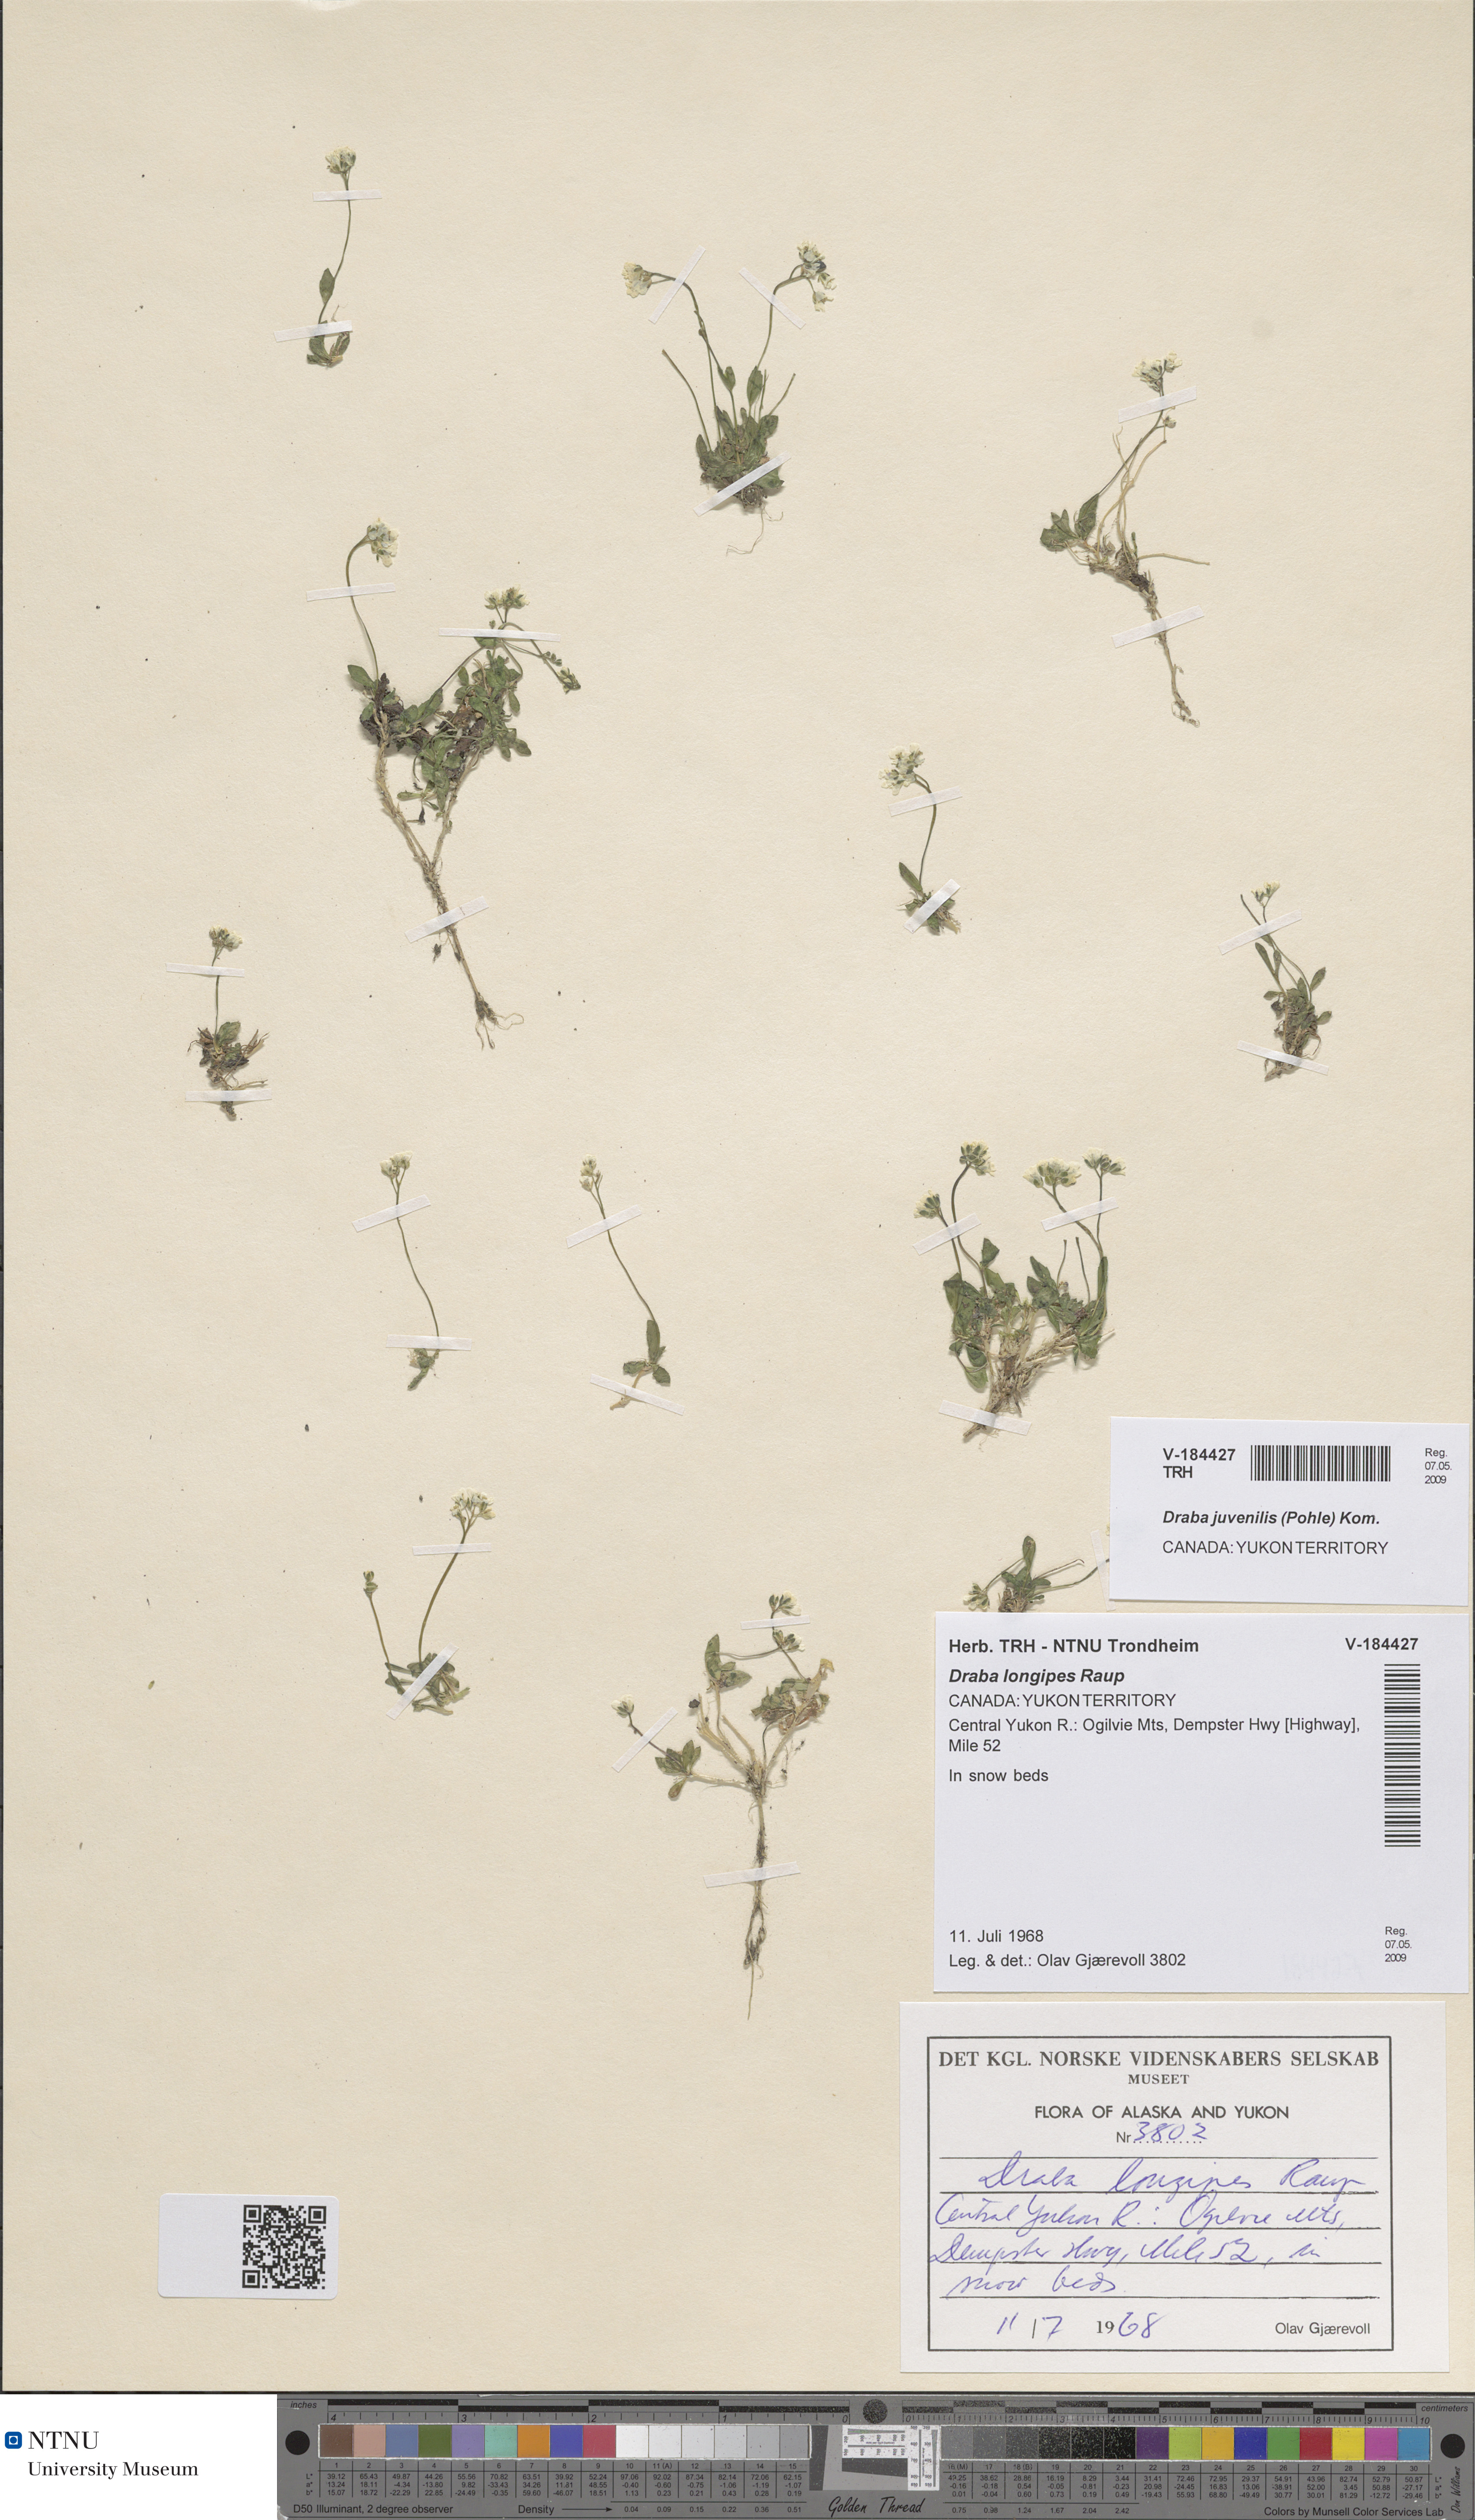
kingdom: Plantae
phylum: Tracheophyta
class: Magnoliopsida
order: Brassicales
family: Brassicaceae
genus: Draba
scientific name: Draba juvenilis
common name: Long-stalked draba
